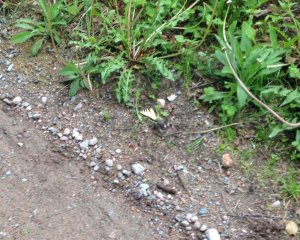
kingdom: Animalia
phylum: Arthropoda
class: Insecta
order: Lepidoptera
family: Papilionidae
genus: Pterourus
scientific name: Pterourus canadensis
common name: Canadian Tiger Swallowtail
